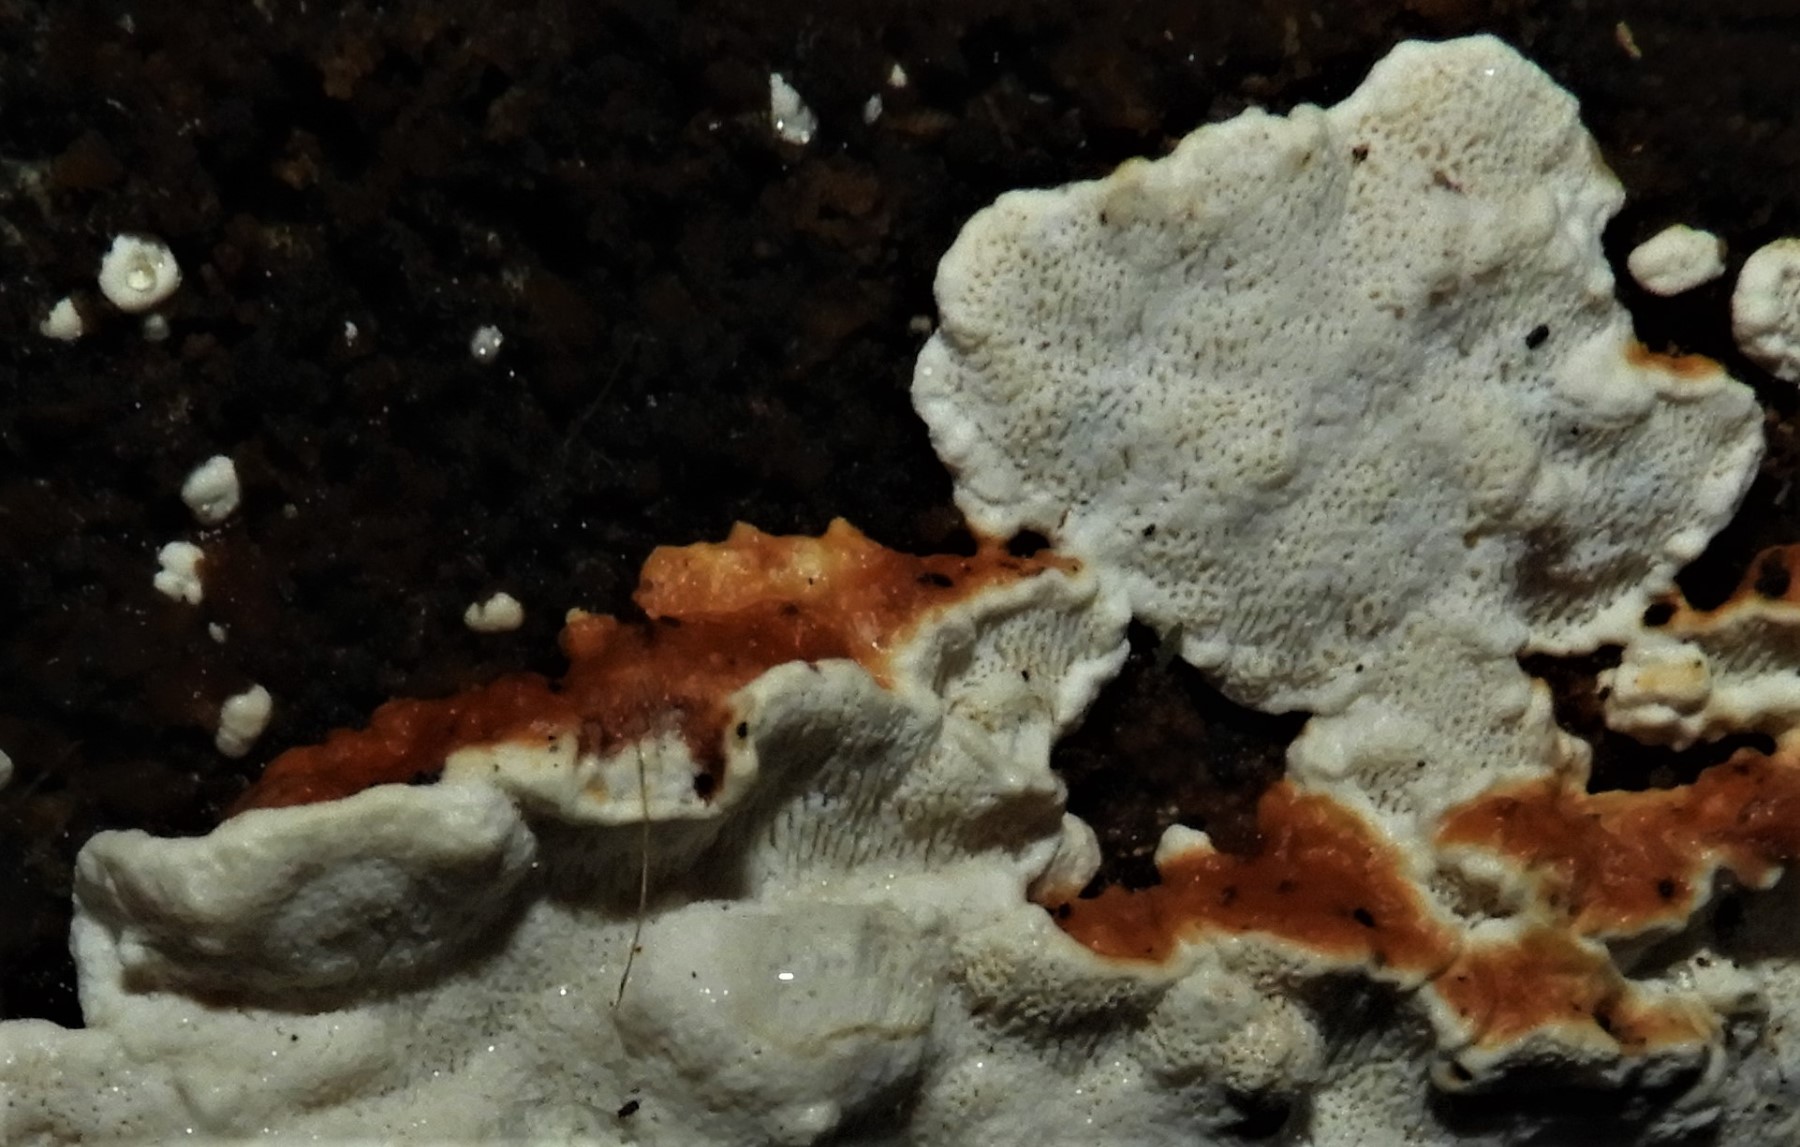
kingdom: Fungi
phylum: Basidiomycota
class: Agaricomycetes
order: Russulales
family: Bondarzewiaceae
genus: Heterobasidion
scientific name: Heterobasidion annosum
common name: almindelig rodfordærver
